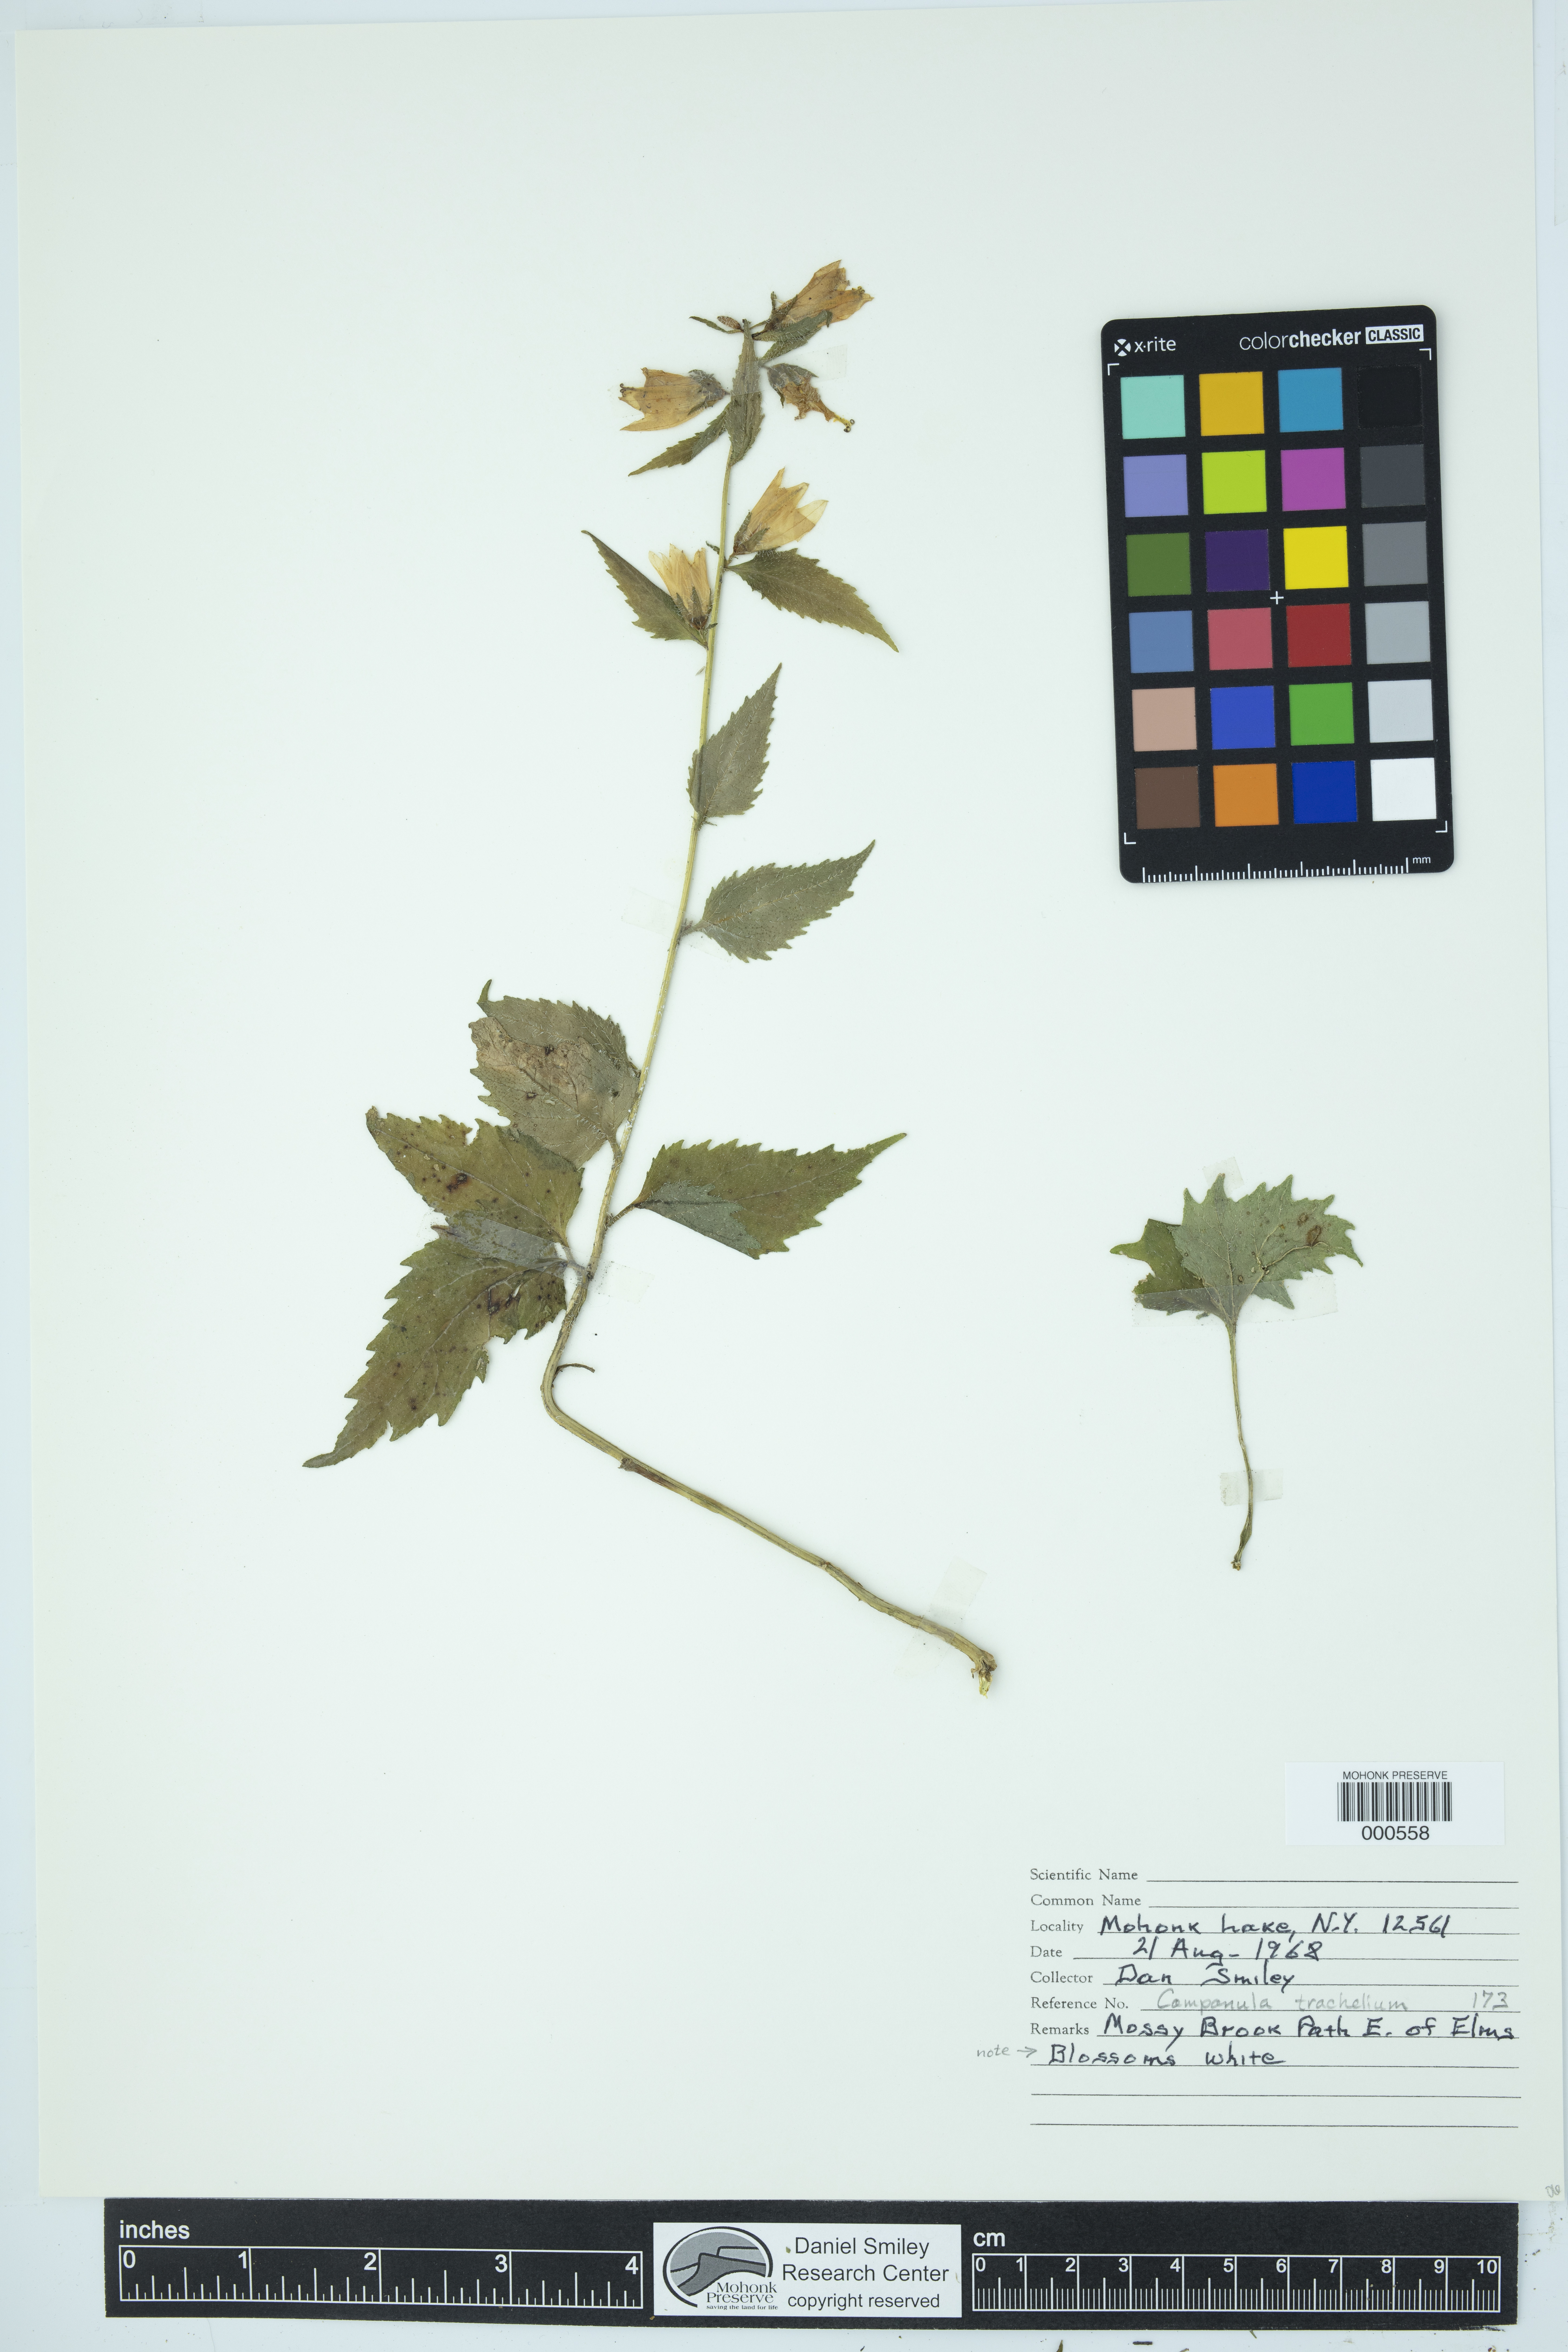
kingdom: Plantae
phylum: Tracheophyta
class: Magnoliopsida
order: Asterales
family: Campanulaceae
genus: Campanula
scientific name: Campanula trachelium
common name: Nettle-leaved bellflower
